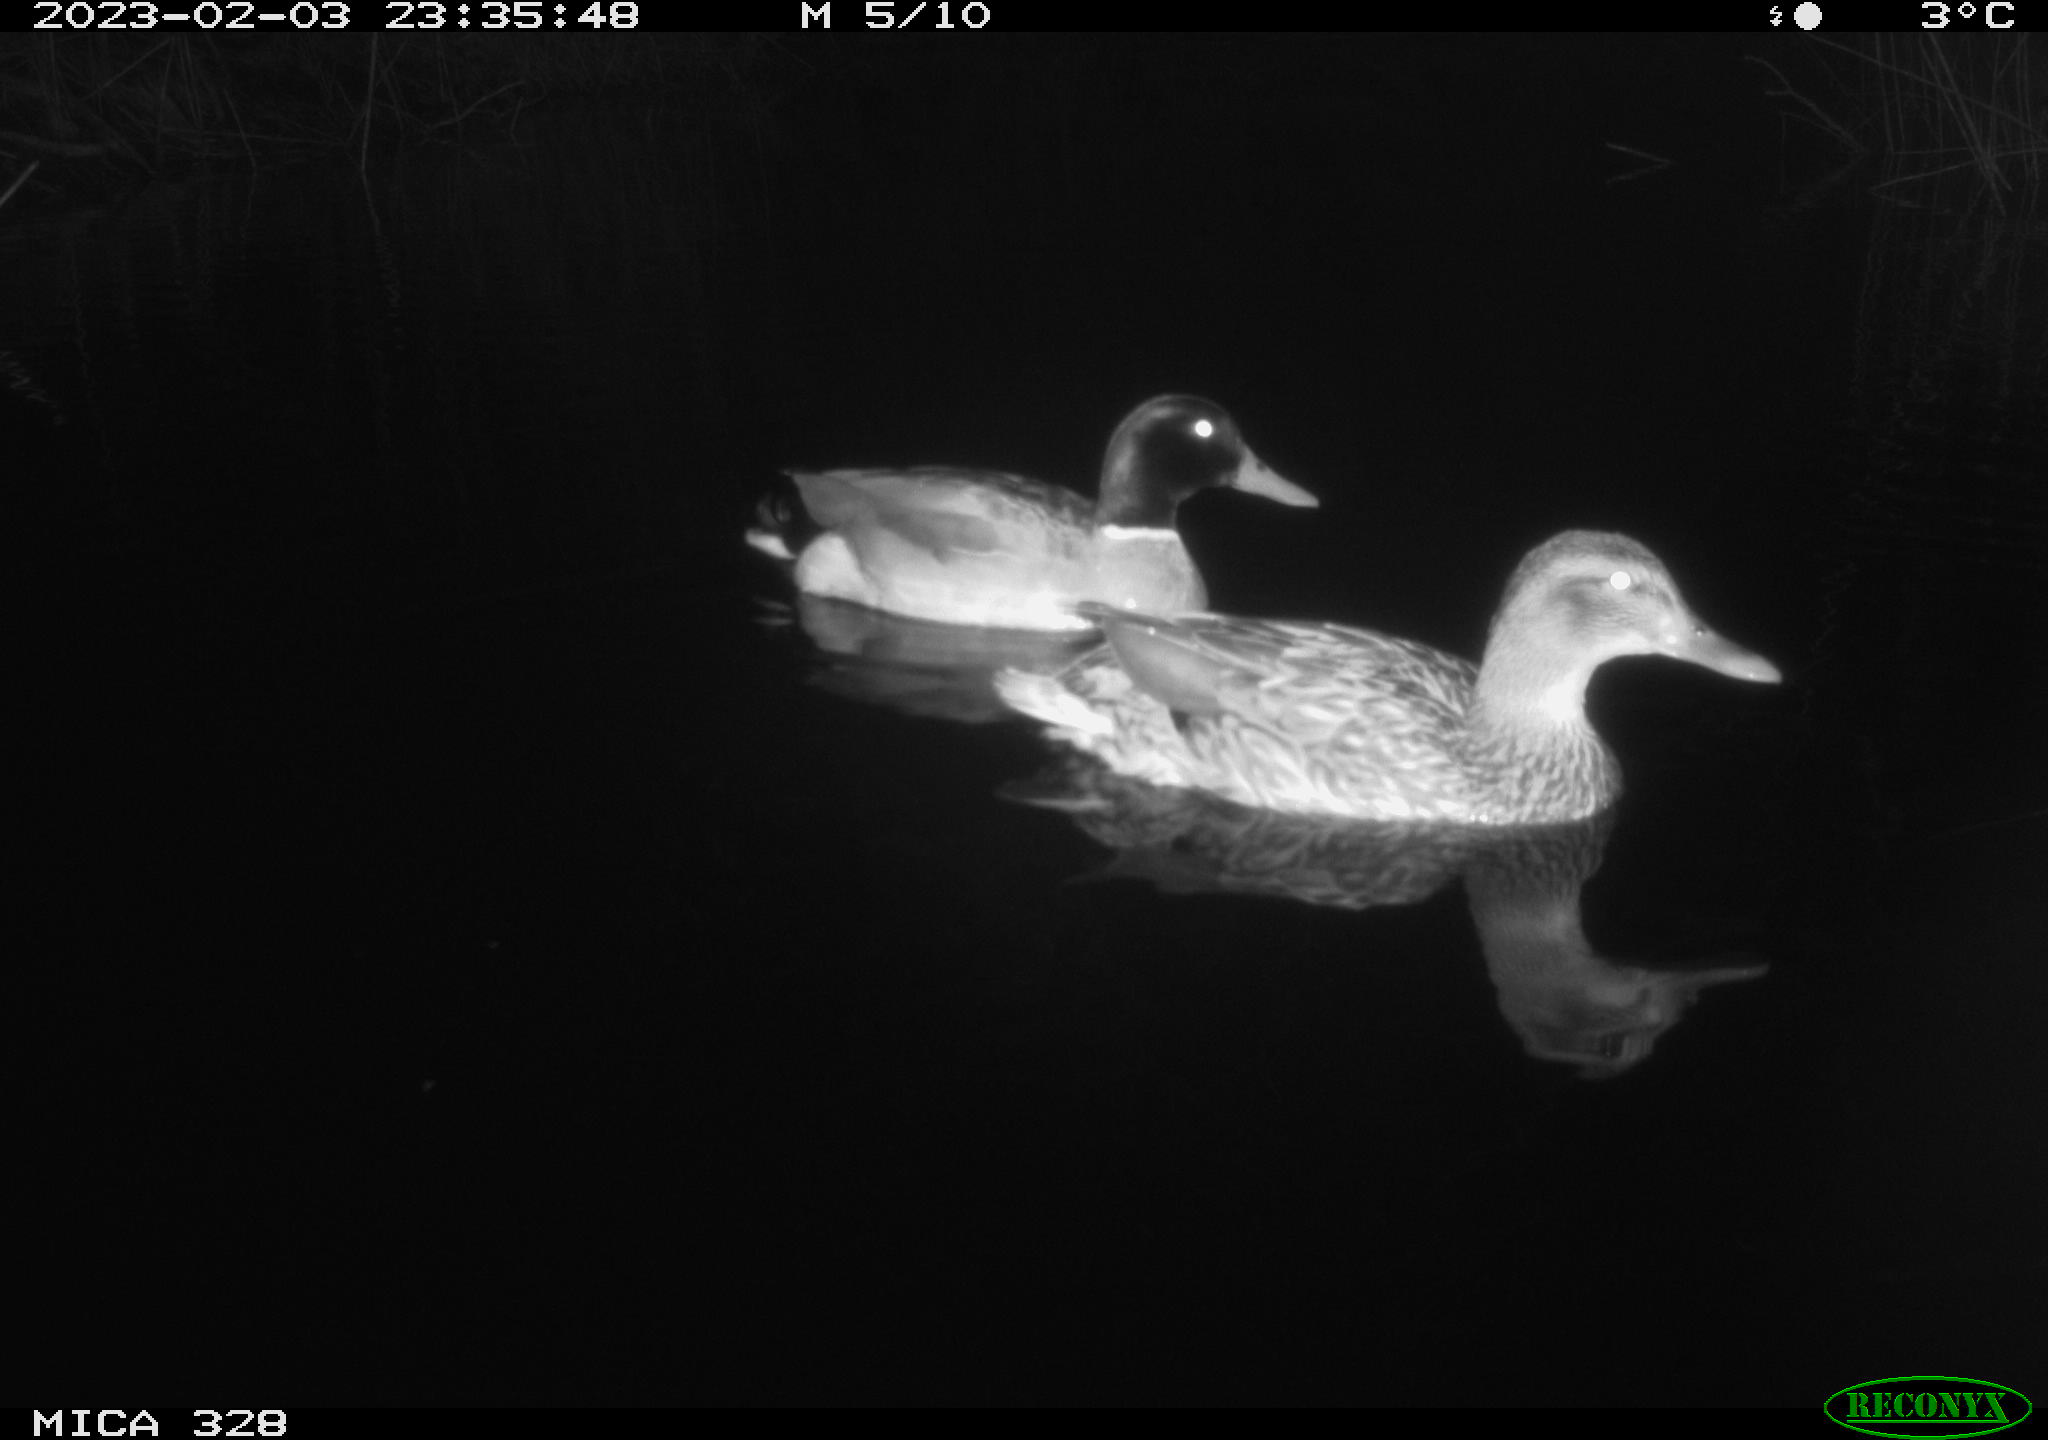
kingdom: Animalia
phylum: Chordata
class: Aves
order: Anseriformes
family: Anatidae
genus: Anas
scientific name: Anas
